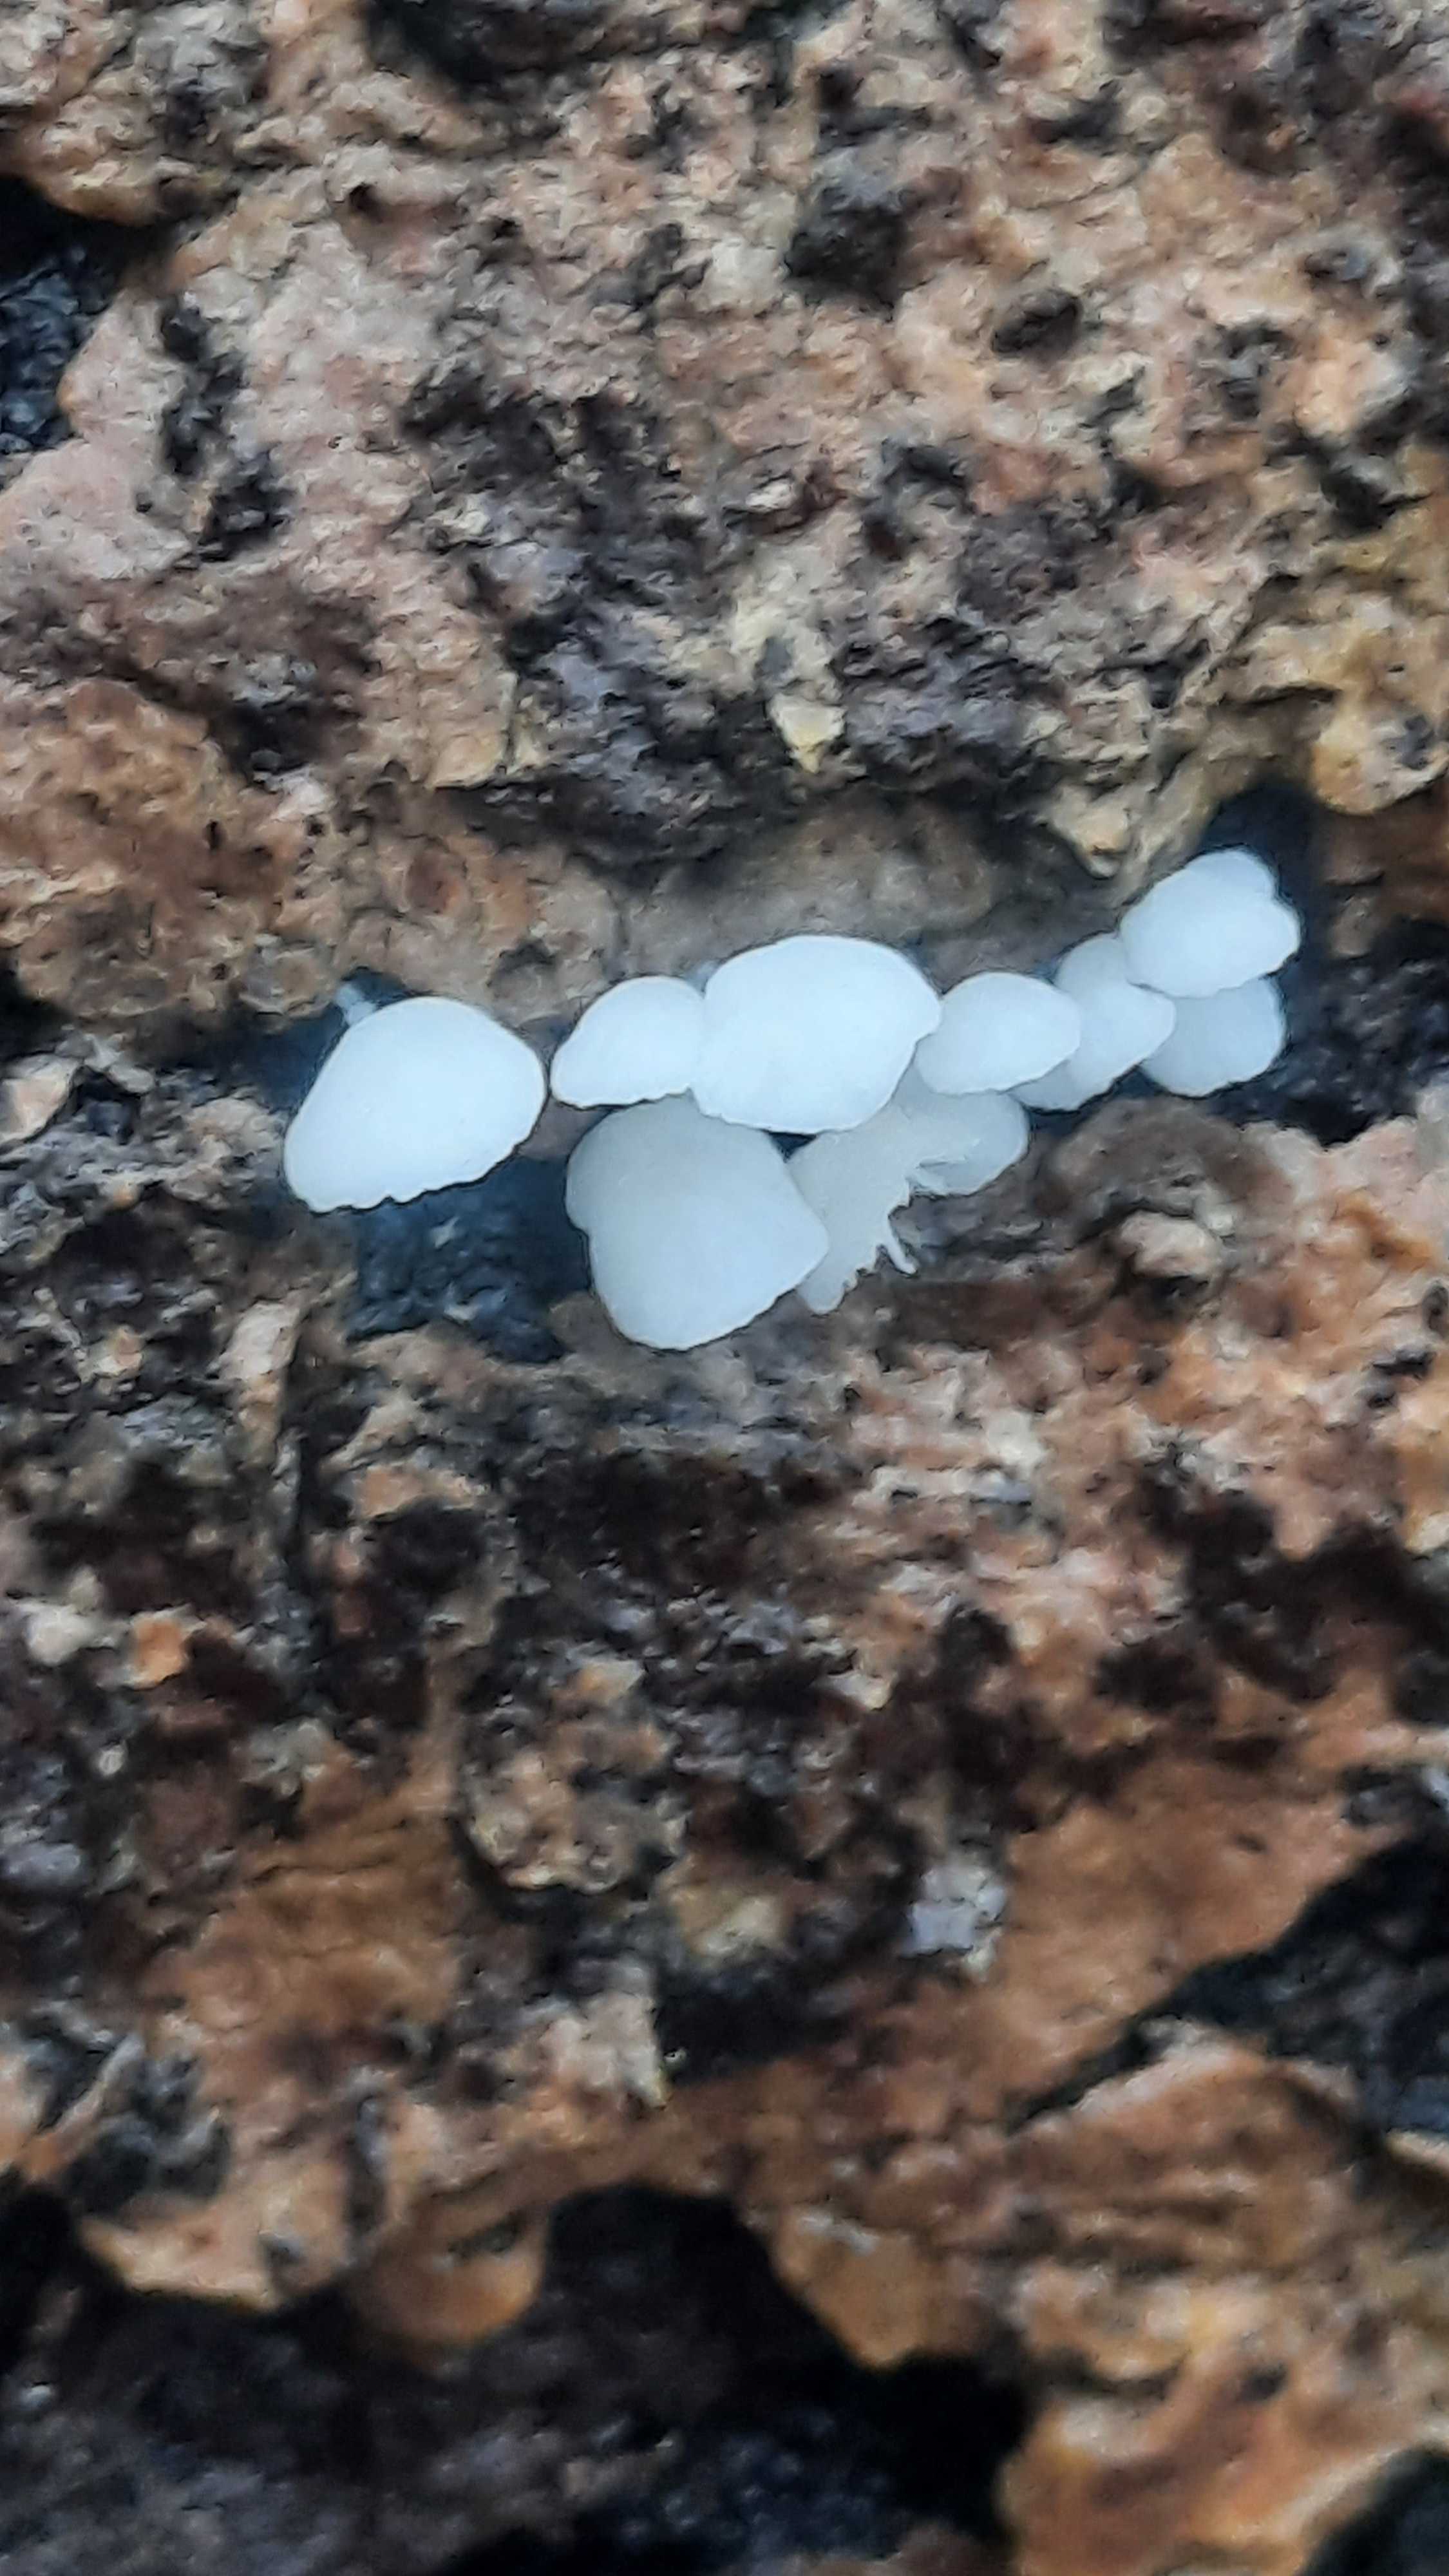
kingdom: Fungi
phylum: Basidiomycota
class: Agaricomycetes
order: Agaricales
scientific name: Agaricales
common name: champignonordenen
